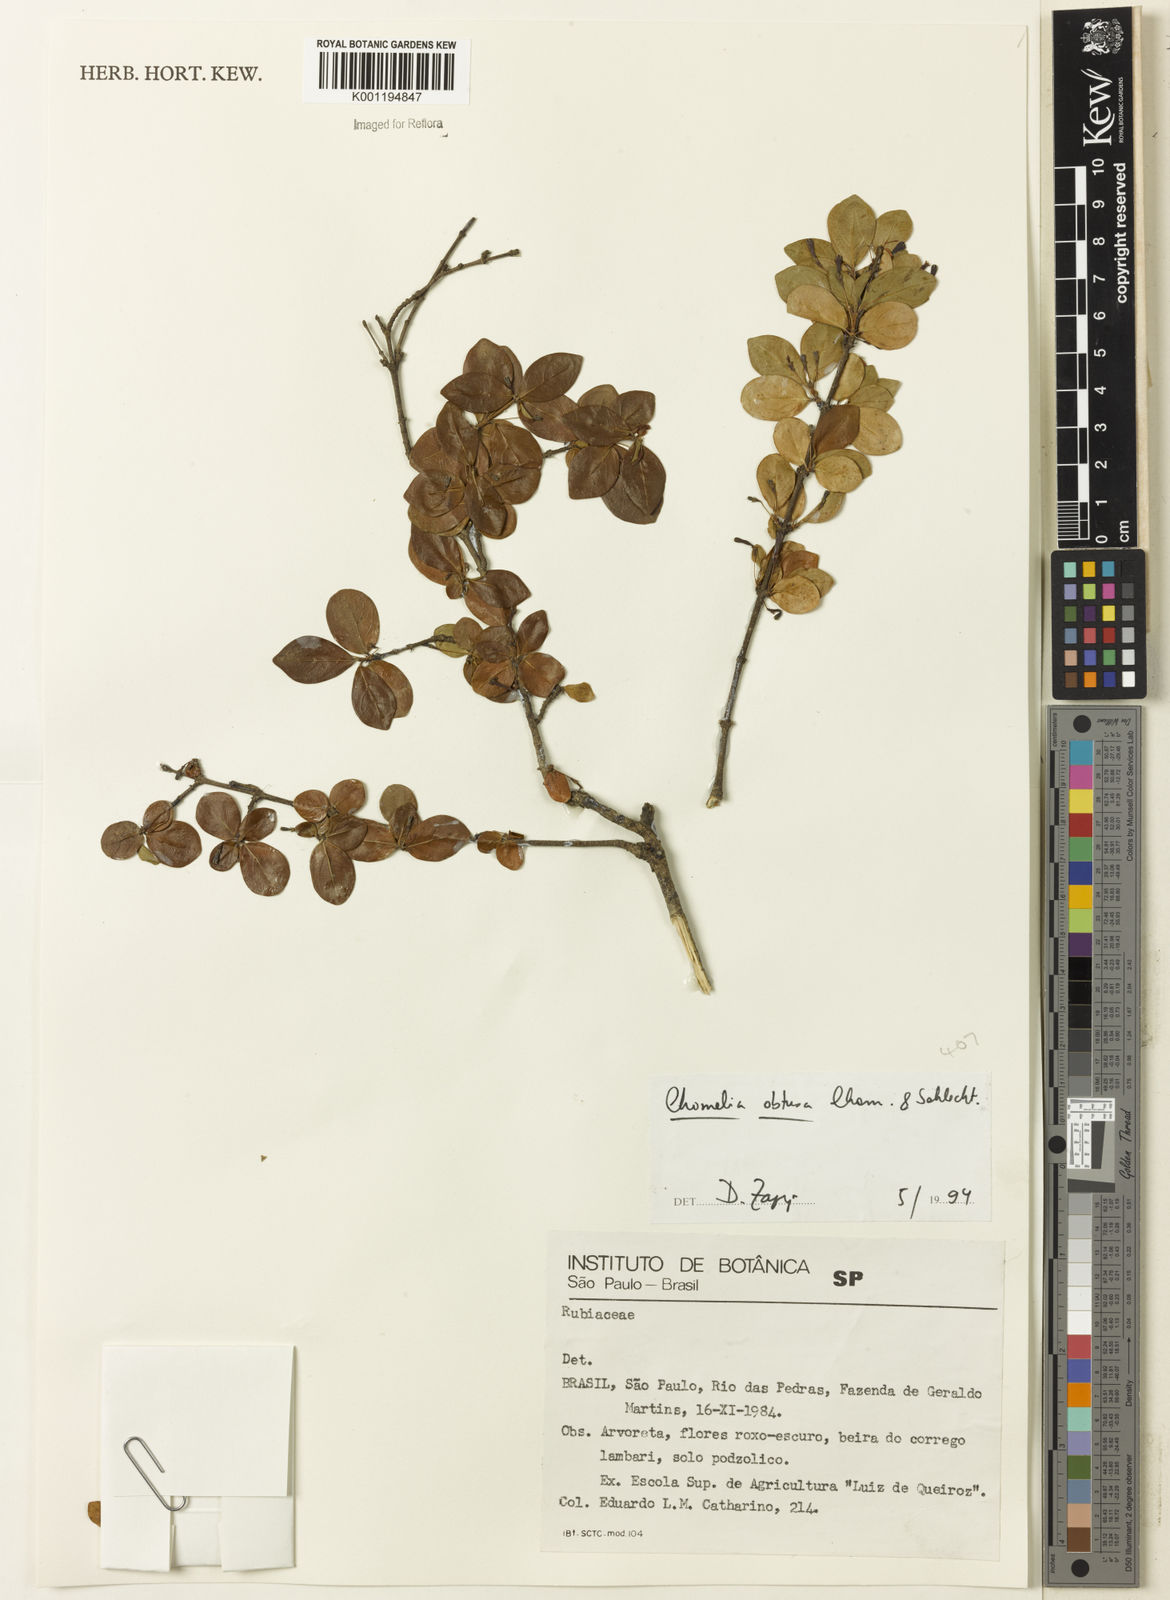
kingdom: Plantae
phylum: Tracheophyta
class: Magnoliopsida
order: Gentianales
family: Rubiaceae
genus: Chomelia
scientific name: Chomelia obtusa
